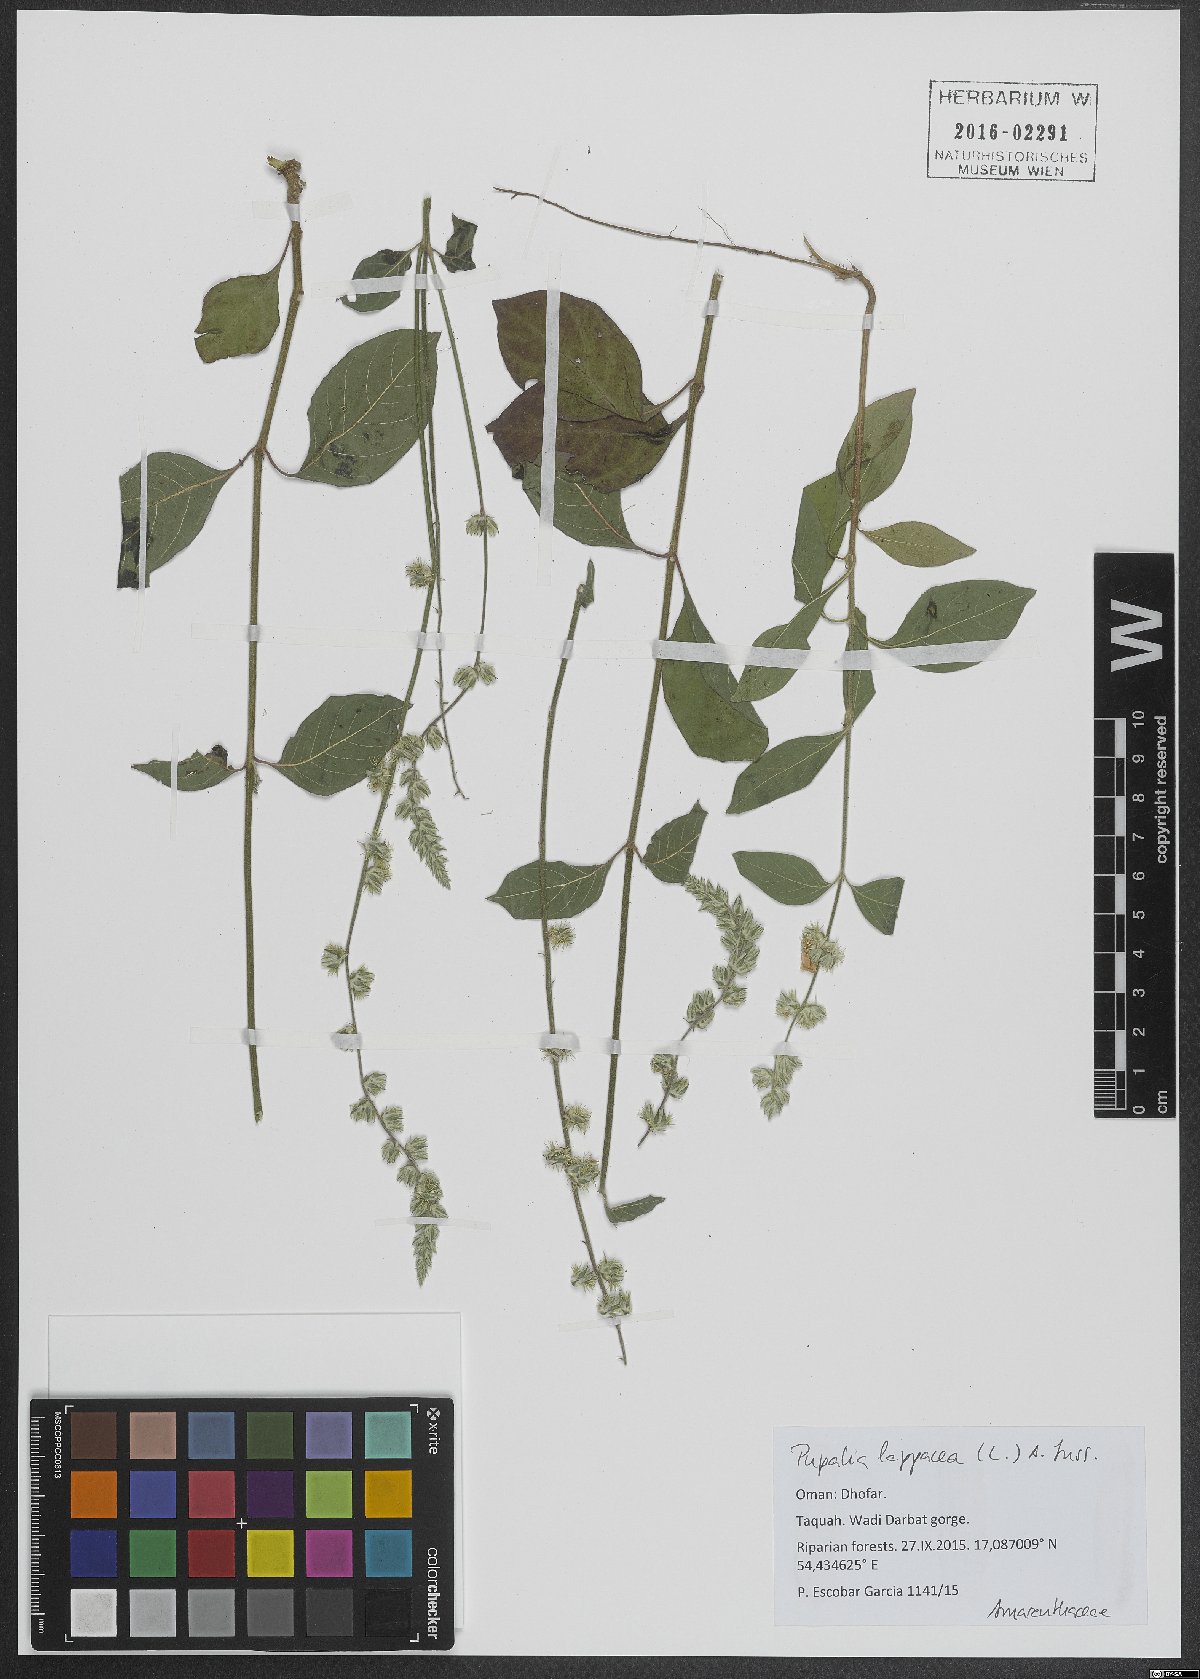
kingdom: Plantae
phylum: Tracheophyta
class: Magnoliopsida
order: Caryophyllales
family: Amaranthaceae
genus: Pupalia
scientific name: Pupalia lappacea
